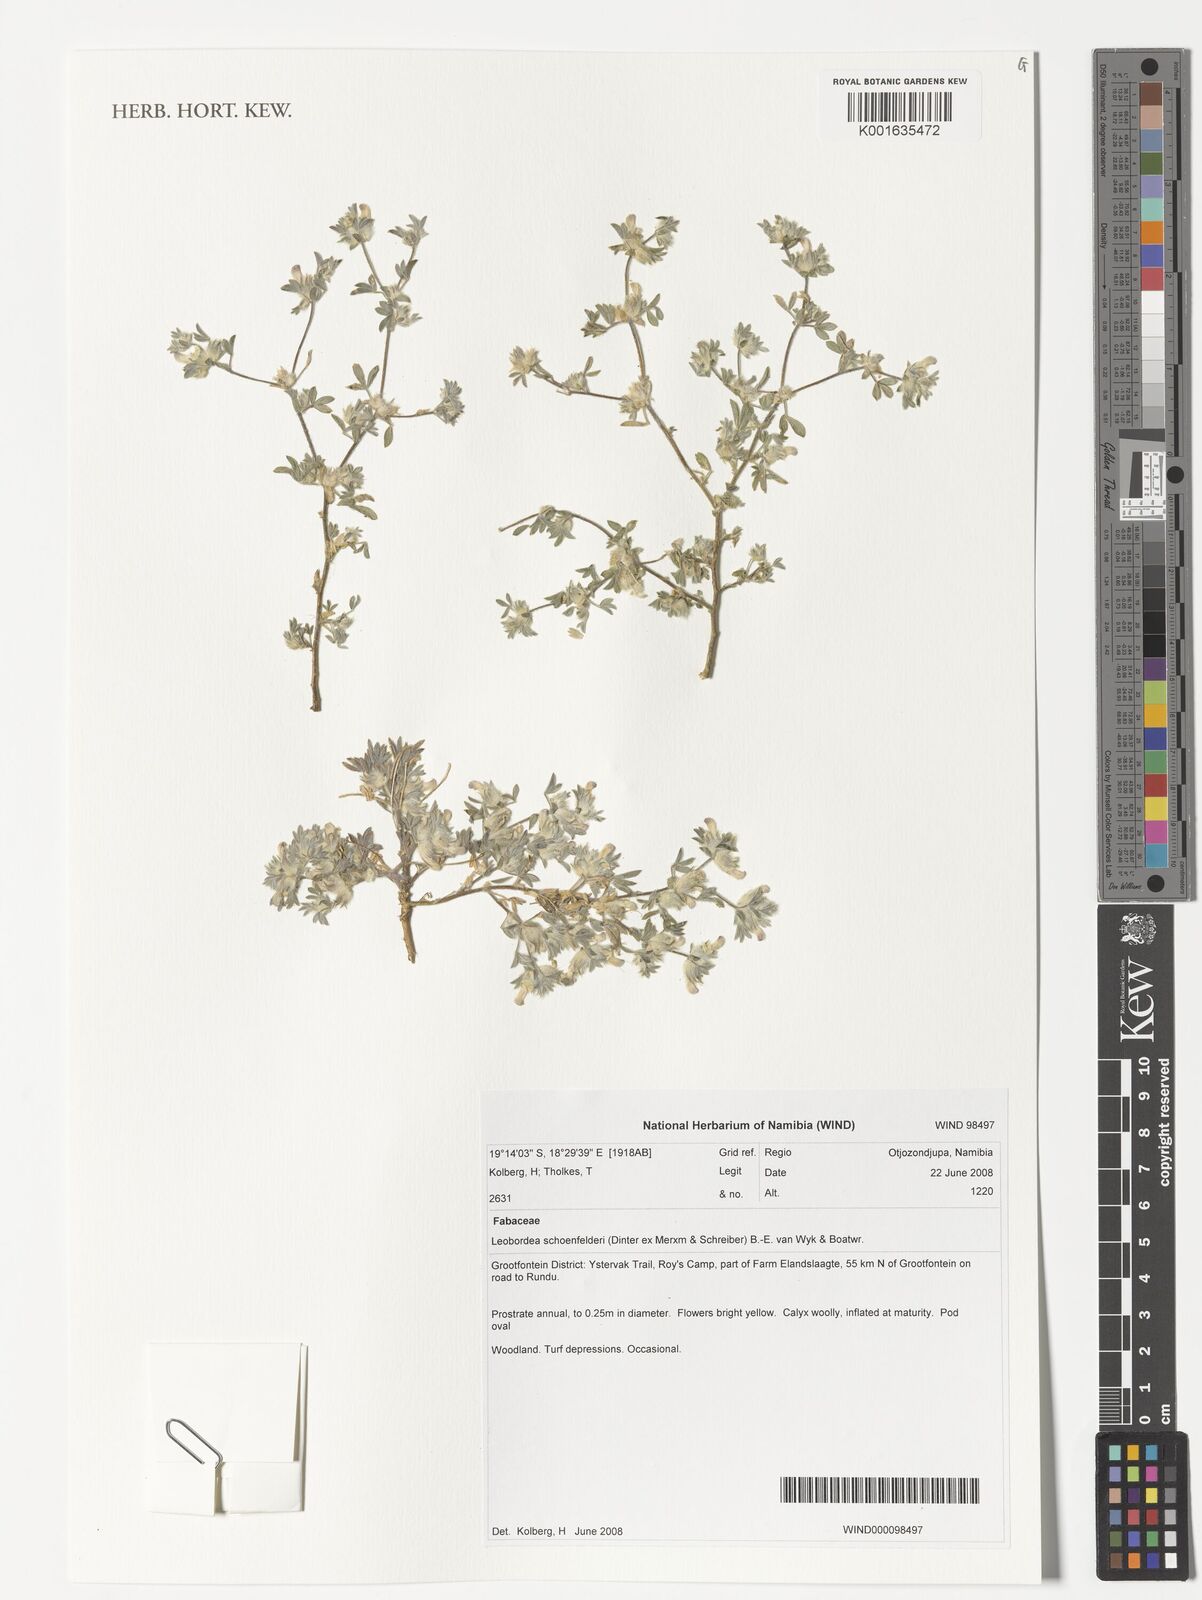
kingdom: Plantae
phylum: Tracheophyta
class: Magnoliopsida
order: Fabales
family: Fabaceae
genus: Leobordea
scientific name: Leobordea schoenfelderi
